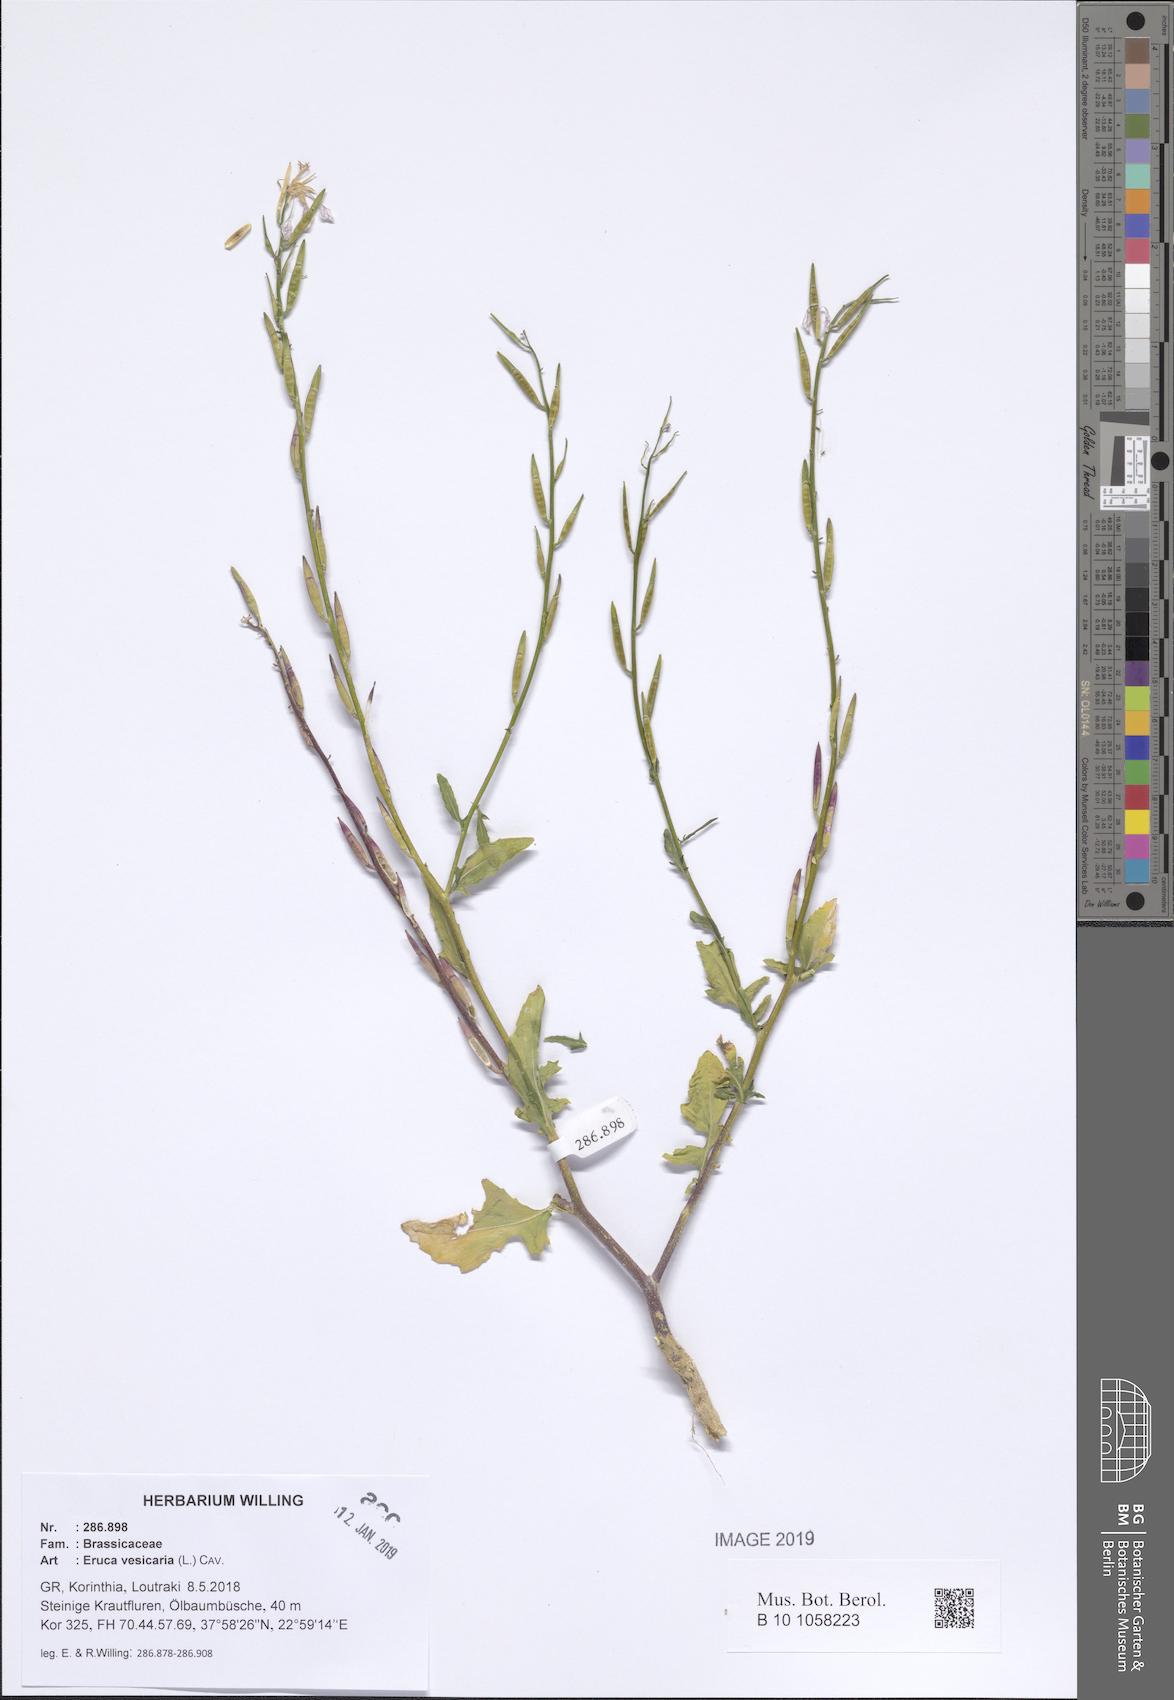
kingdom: Plantae
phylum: Tracheophyta
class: Magnoliopsida
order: Brassicales
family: Brassicaceae
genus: Eruca
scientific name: Eruca vesicaria
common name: Garden rocket
